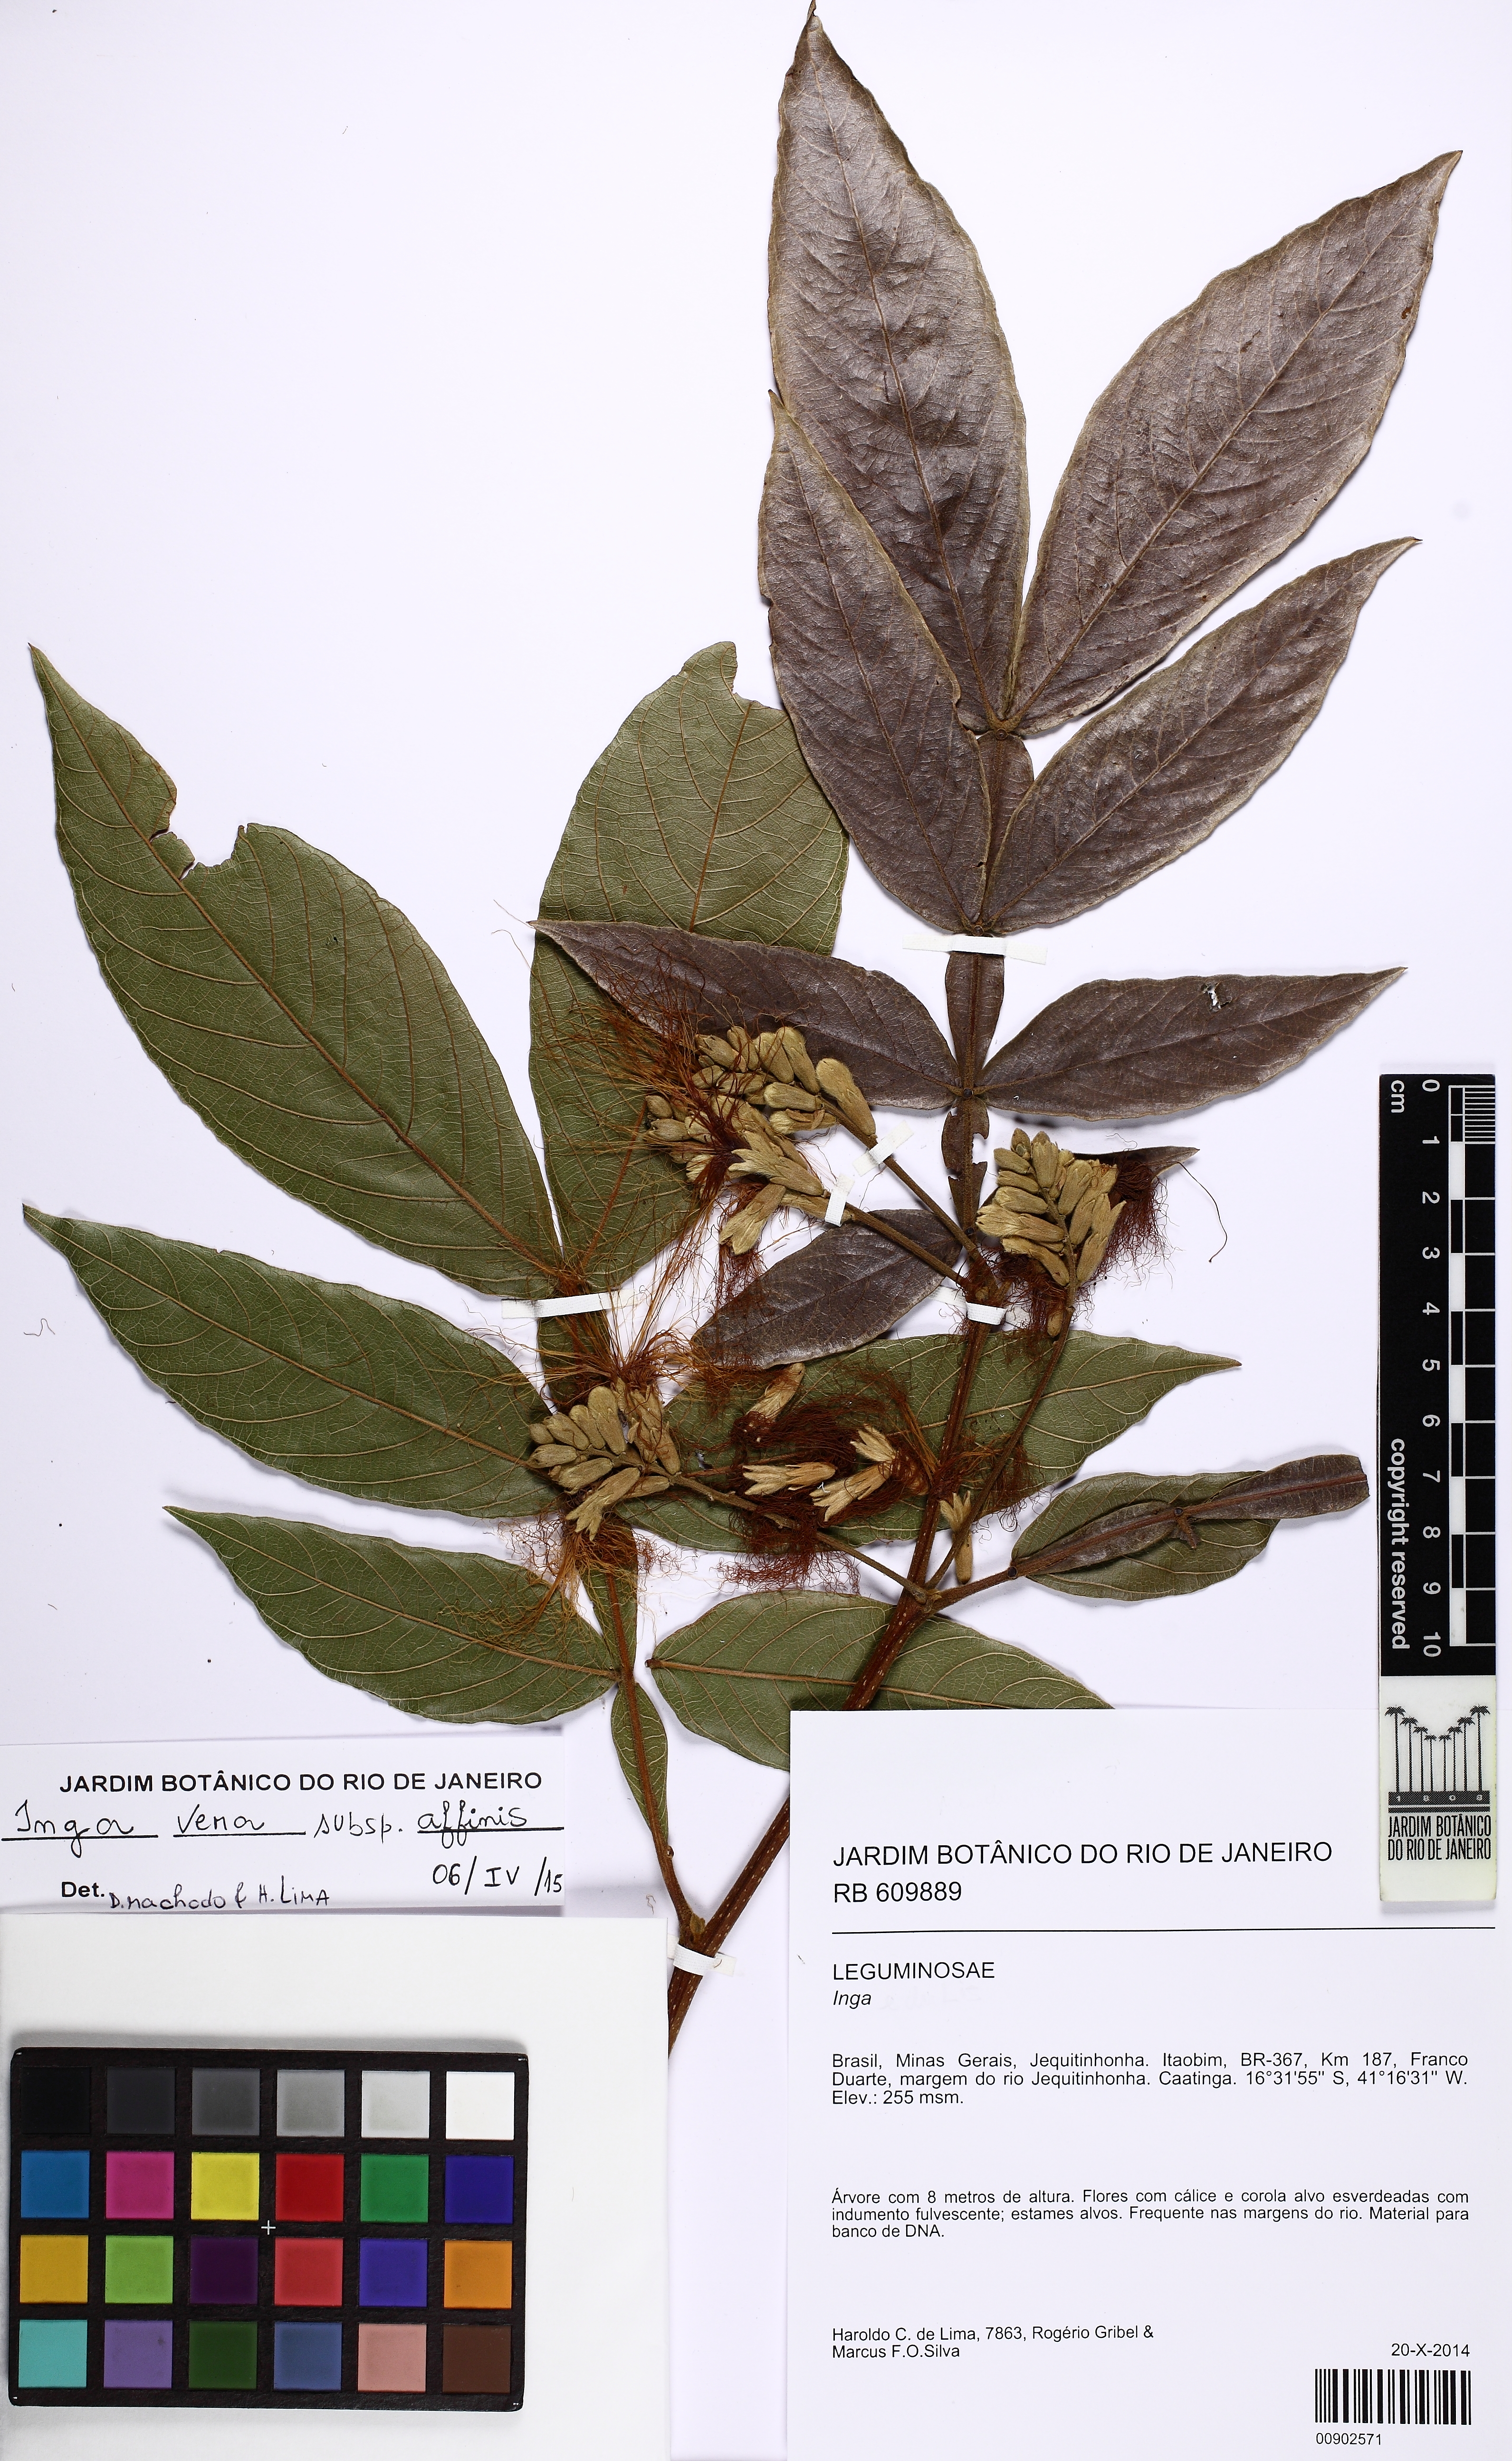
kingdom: Plantae
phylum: Tracheophyta
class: Magnoliopsida
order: Fabales
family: Fabaceae
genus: Inga
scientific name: Inga affinis
